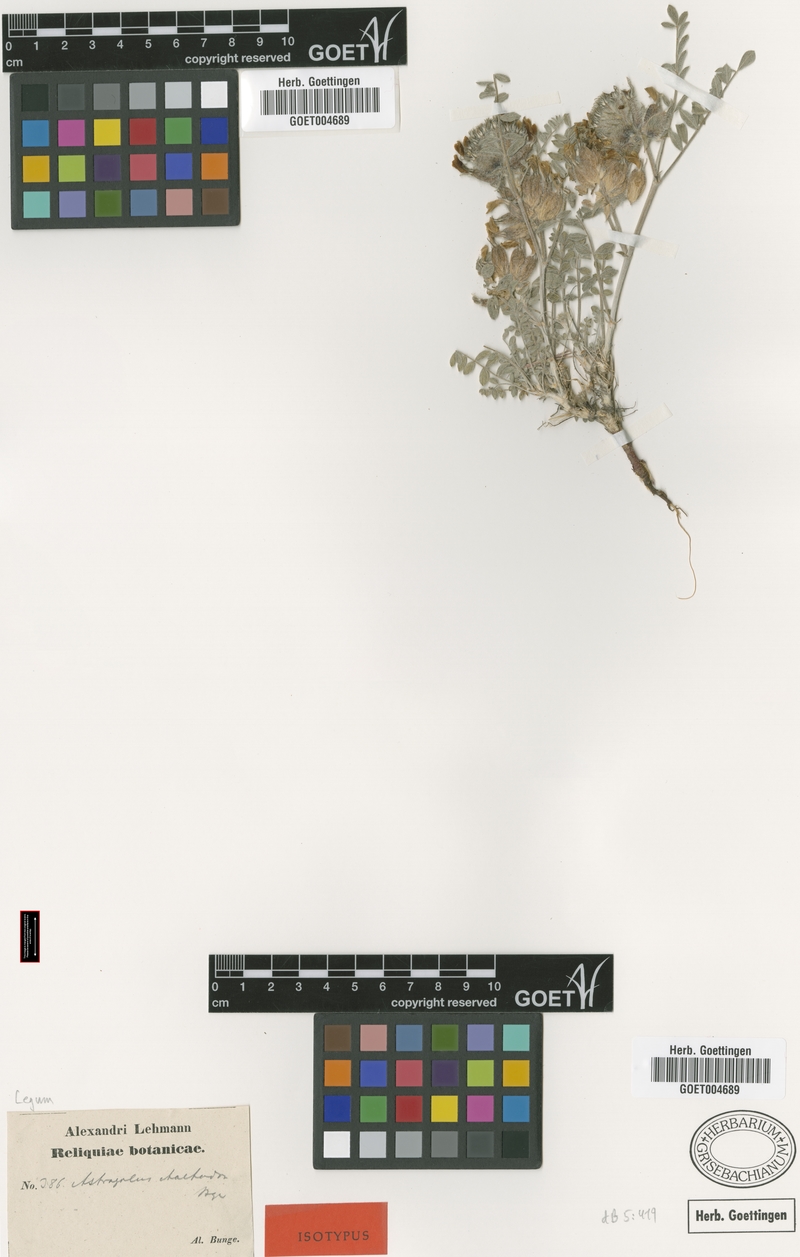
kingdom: Plantae
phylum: Tracheophyta
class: Magnoliopsida
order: Fabales
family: Fabaceae
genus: Astragalus
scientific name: Astragalus chaetodon
